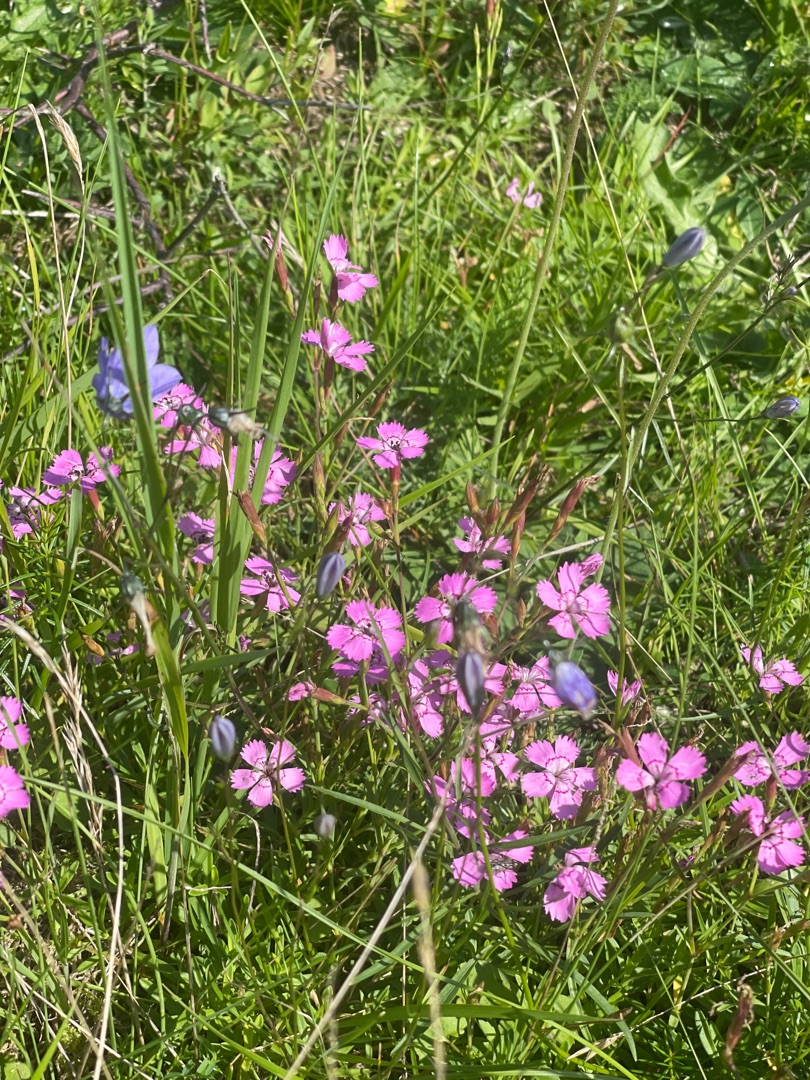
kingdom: Plantae
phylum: Tracheophyta
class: Magnoliopsida
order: Caryophyllales
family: Caryophyllaceae
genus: Dianthus
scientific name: Dianthus deltoides
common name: Bakke-nellike
